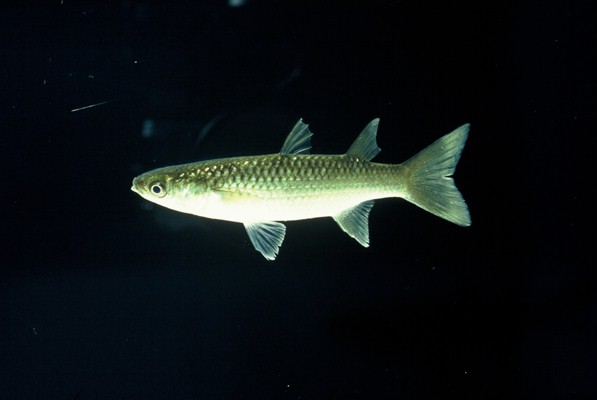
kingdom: Animalia
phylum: Chordata
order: Mugiliformes
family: Mugilidae
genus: Planiliza
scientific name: Planiliza alata
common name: Diamond mullet
